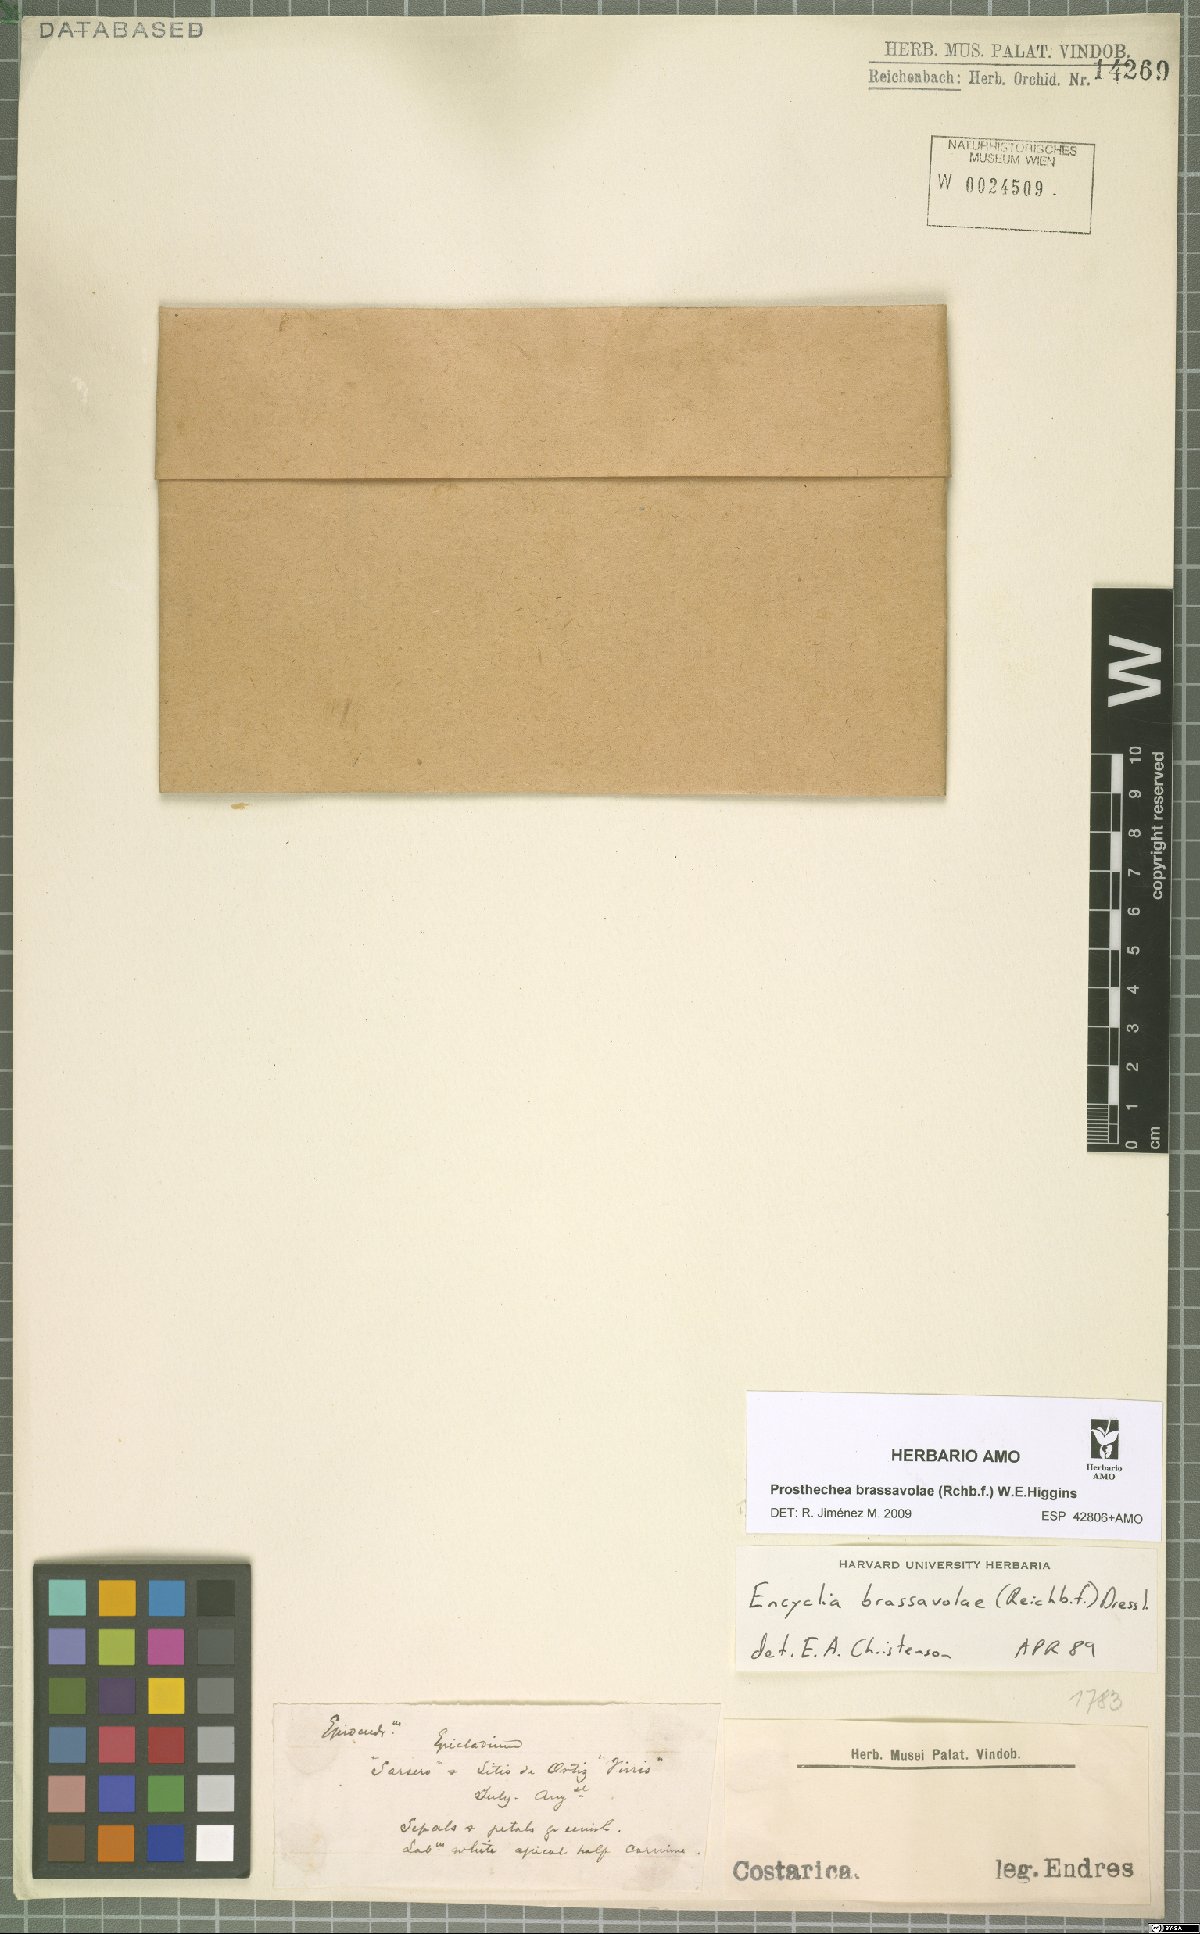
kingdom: Plantae
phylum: Tracheophyta
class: Liliopsida
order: Asparagales
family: Orchidaceae
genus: Prosthechea
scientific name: Prosthechea brassavolae
